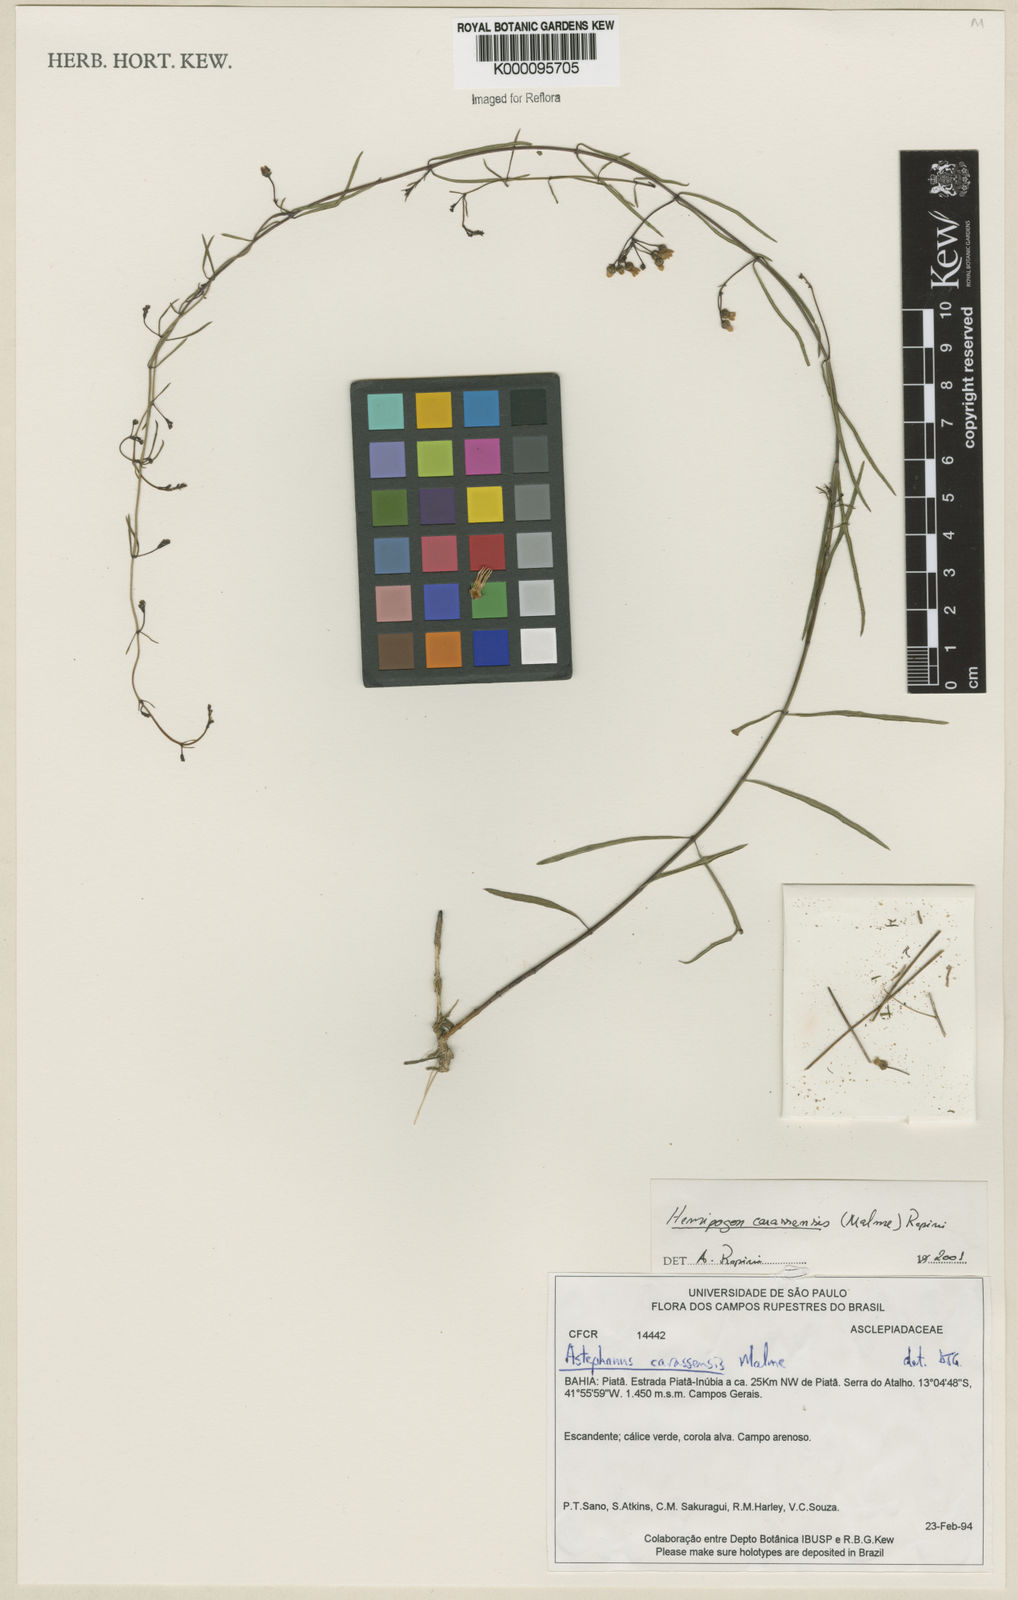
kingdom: Plantae
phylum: Tracheophyta
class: Magnoliopsida
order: Gentianales
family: Apocynaceae
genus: Morilloa
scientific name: Morilloa carassensis
